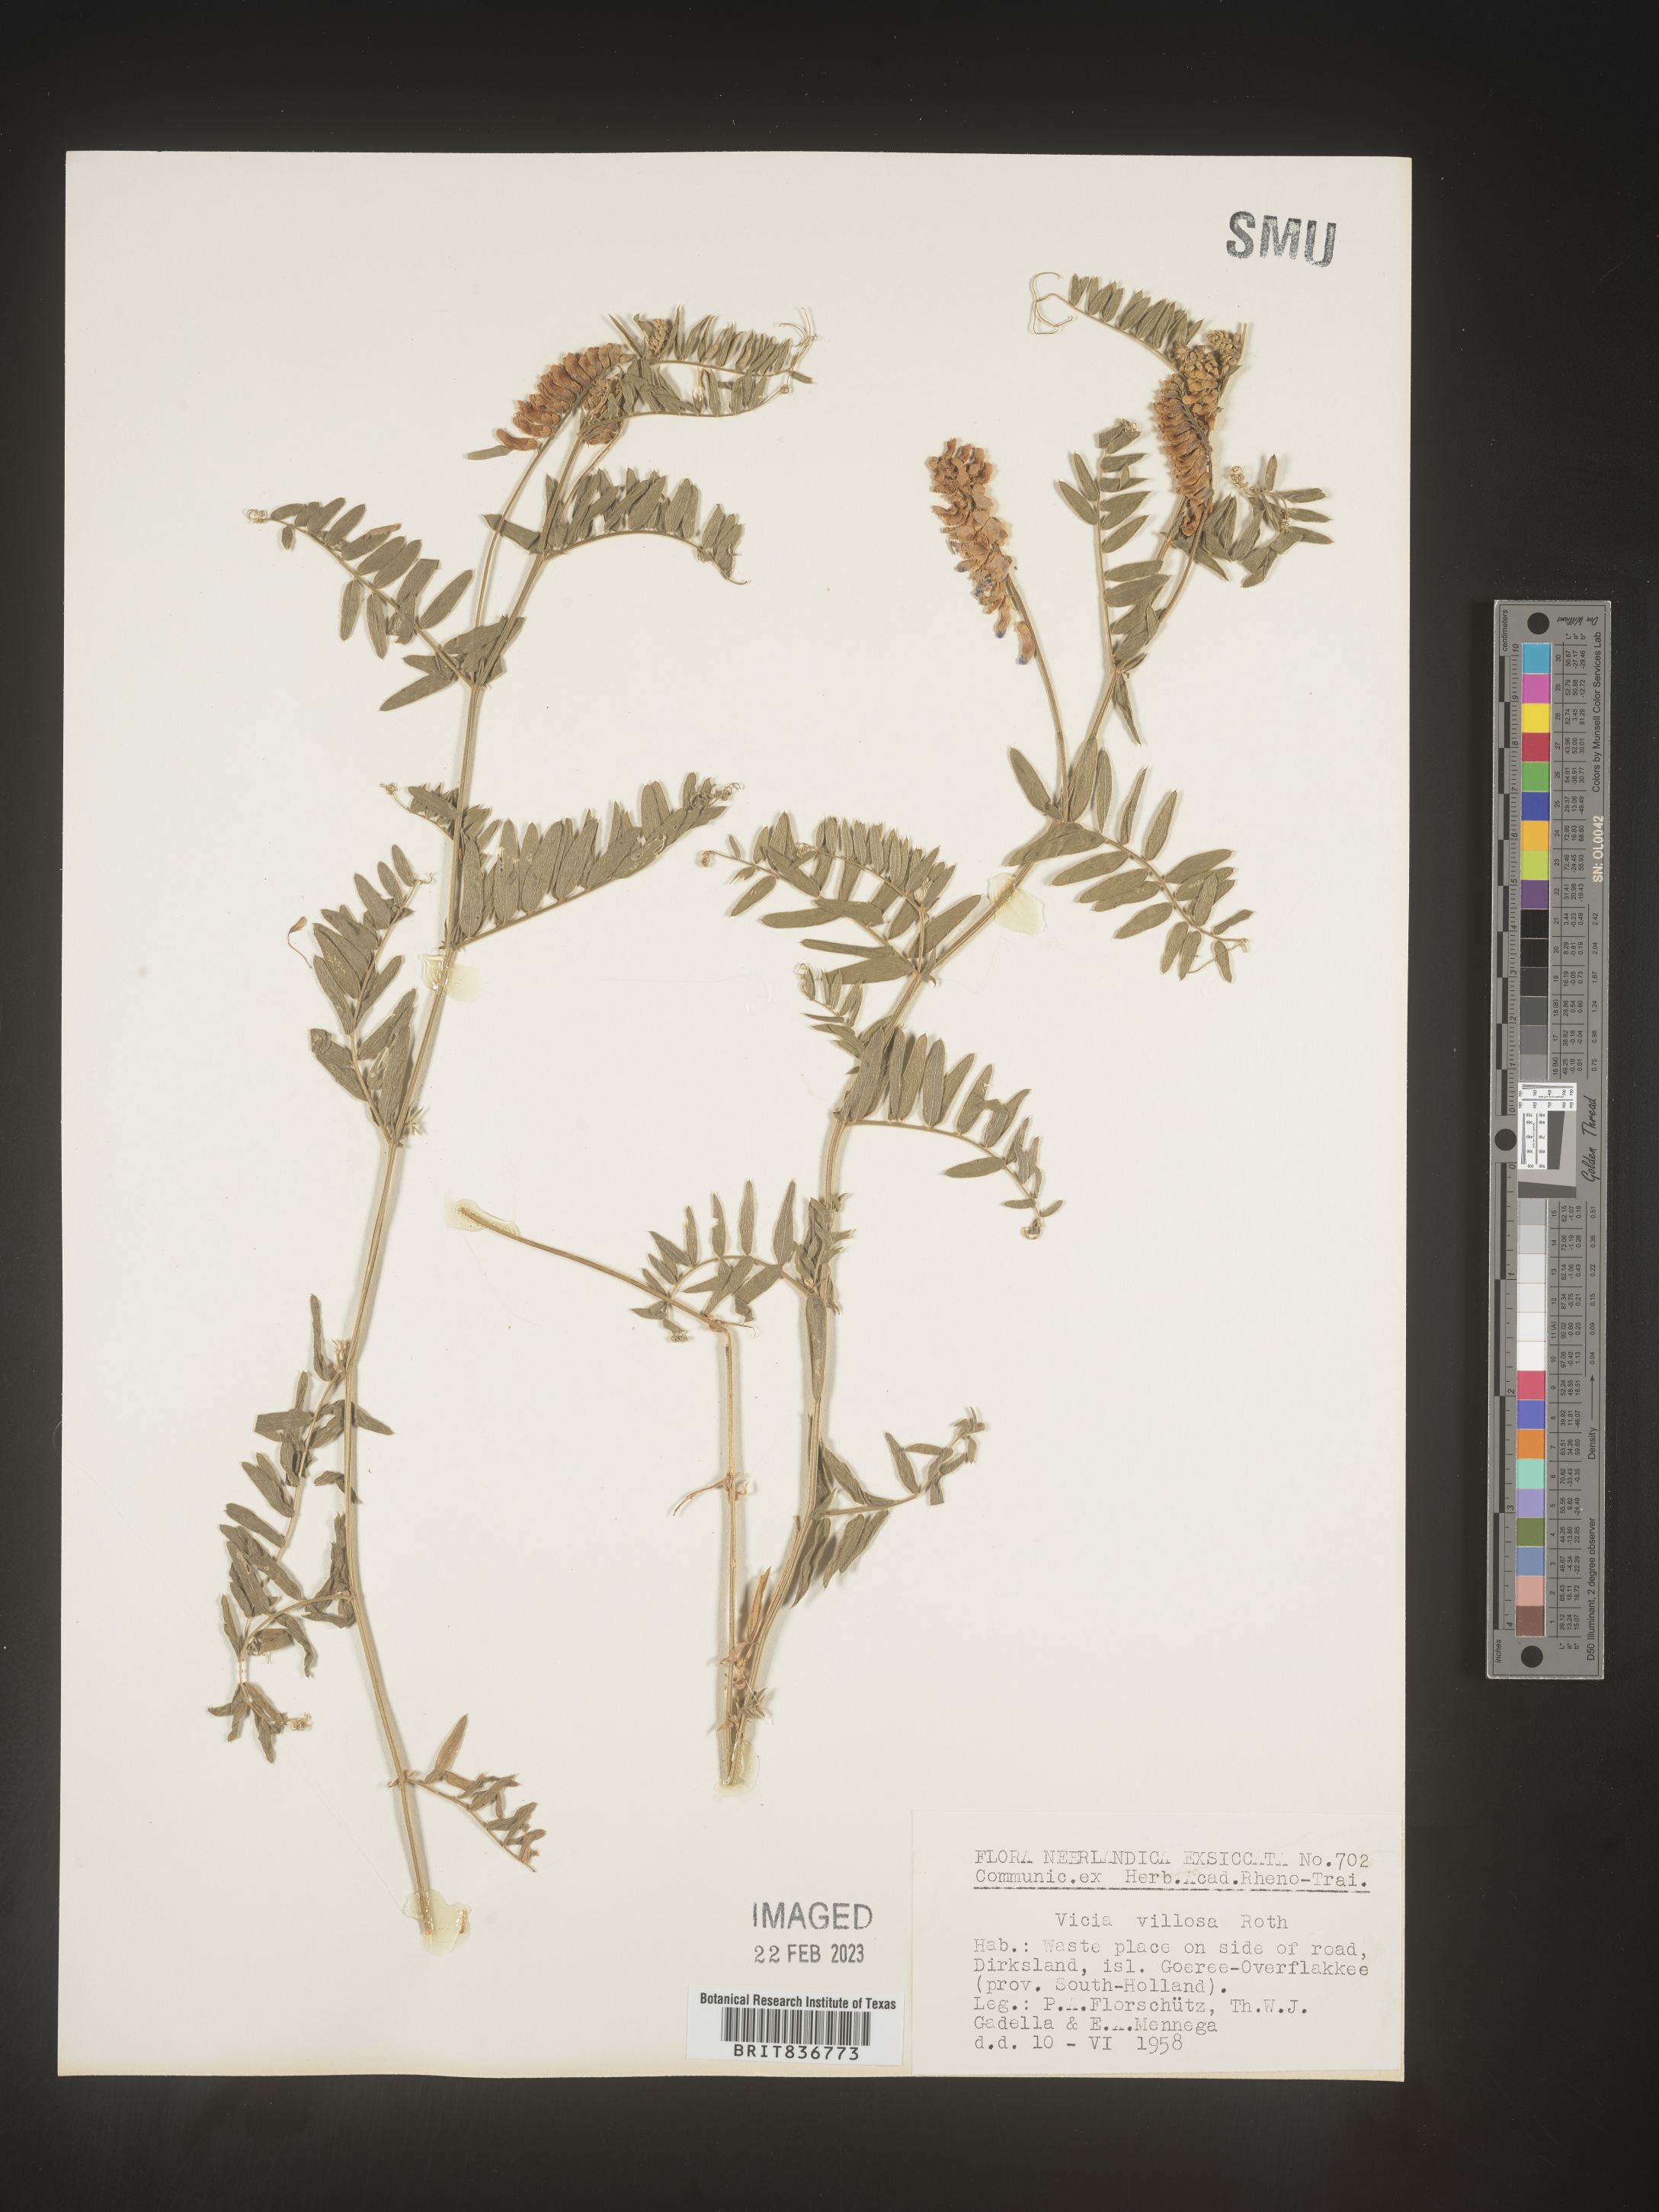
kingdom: Plantae
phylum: Tracheophyta
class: Magnoliopsida
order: Fabales
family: Fabaceae
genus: Vicia
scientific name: Vicia
